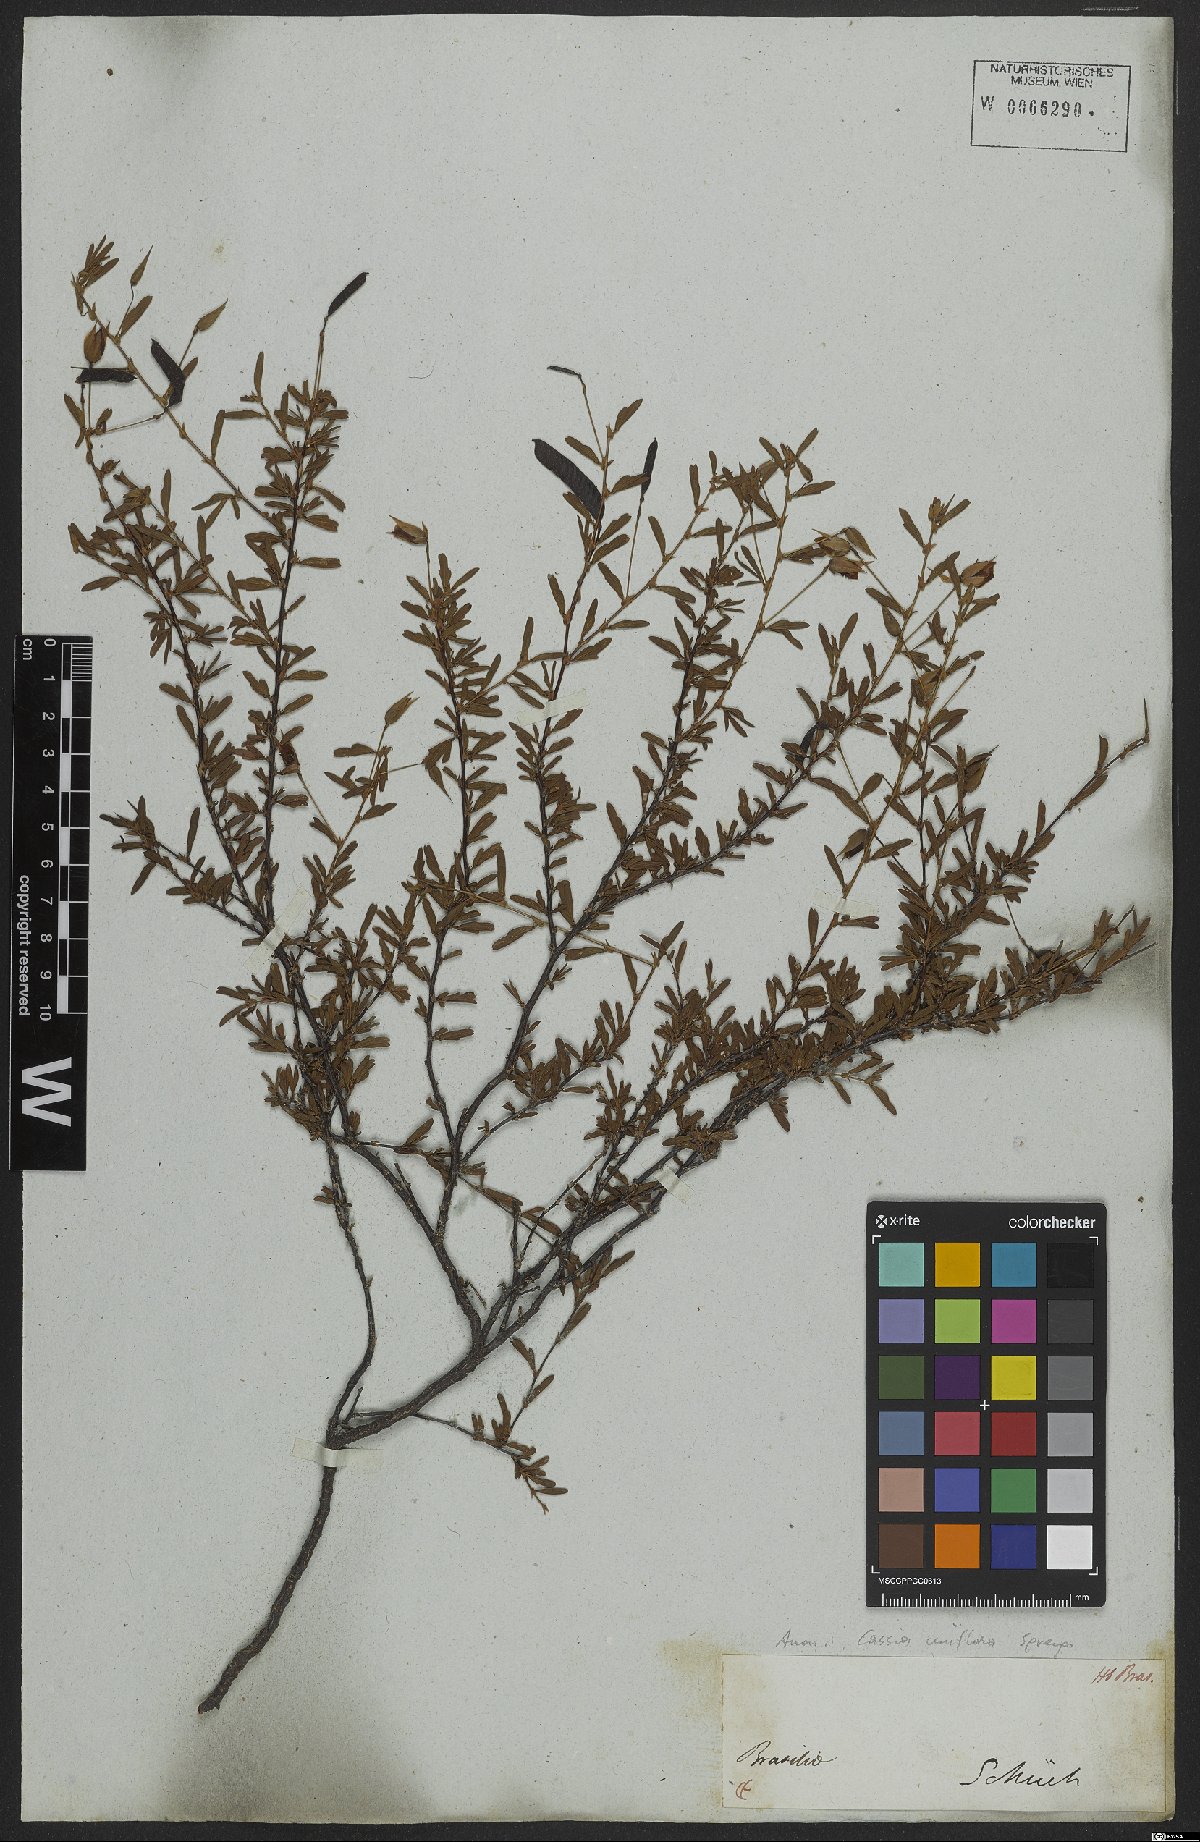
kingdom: Plantae
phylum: Tracheophyta
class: Magnoliopsida
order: Fabales
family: Fabaceae
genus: Senna
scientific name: Senna uniflora
